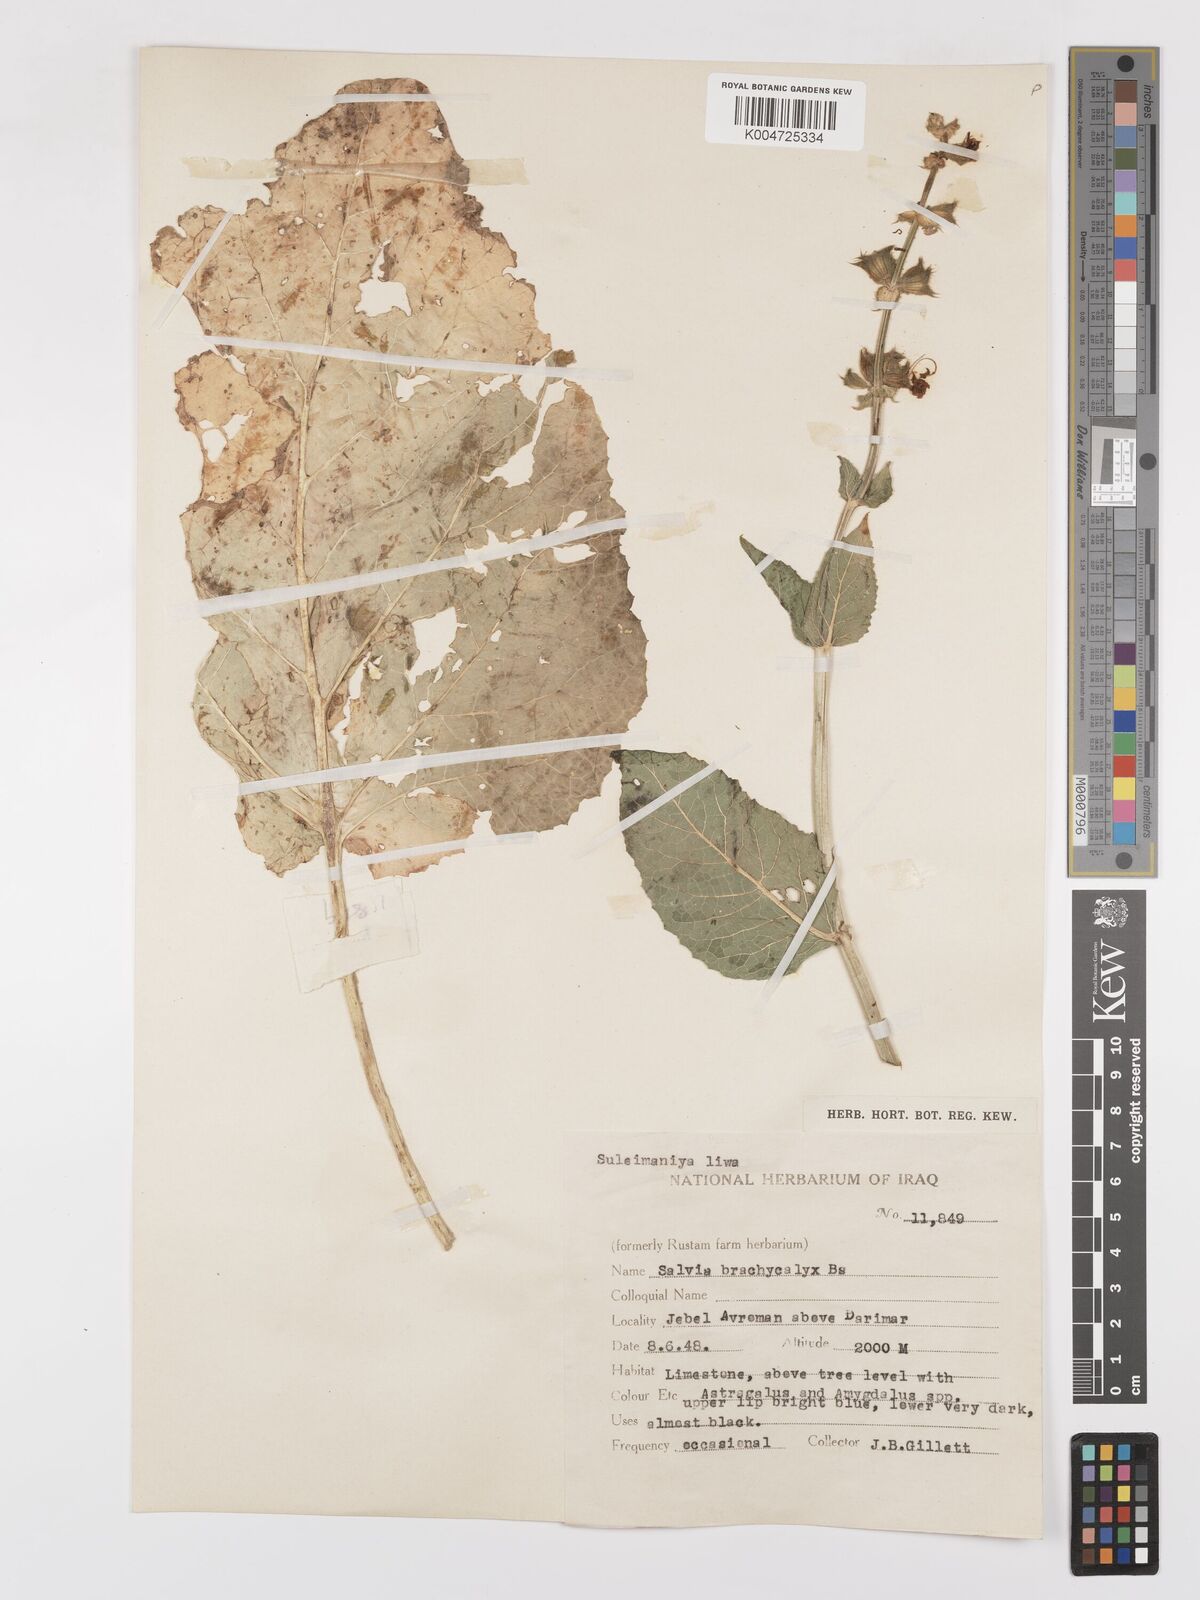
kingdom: Plantae
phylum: Tracheophyta
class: Magnoliopsida
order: Lamiales
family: Lamiaceae
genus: Salvia
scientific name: Salvia indica
